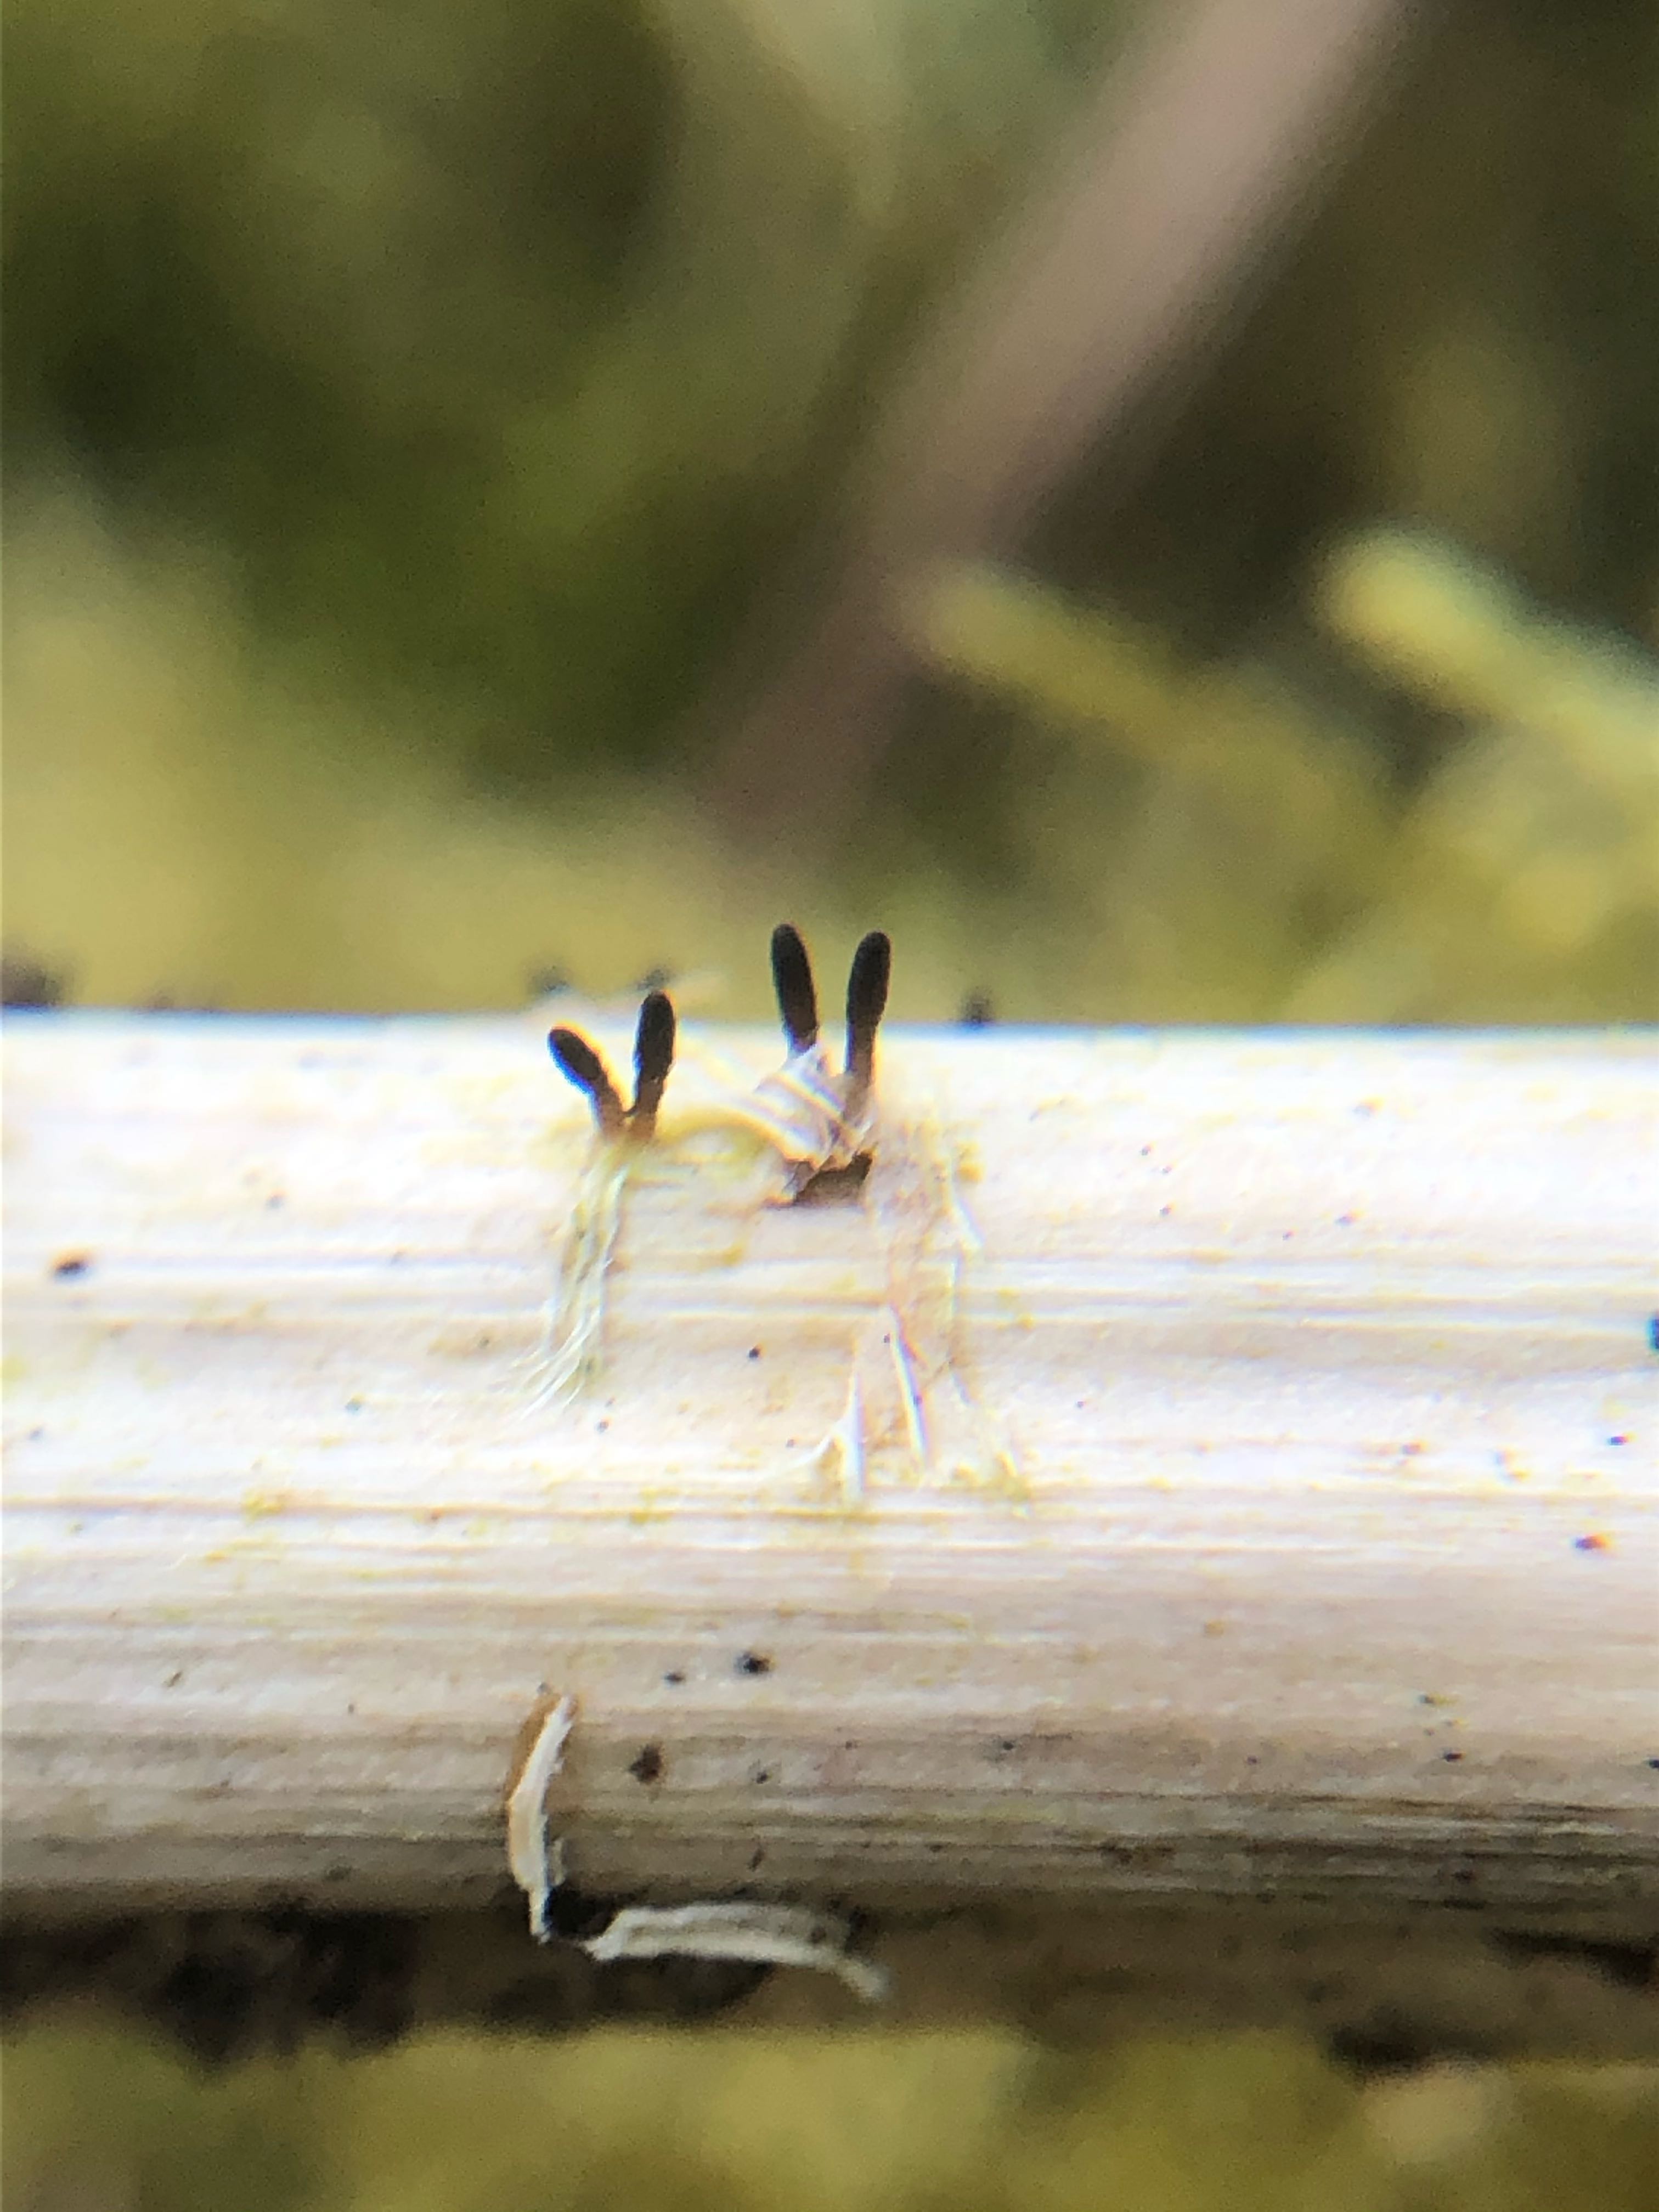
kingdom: Fungi
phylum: Ascomycota
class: Dothideomycetes
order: Acrospermales
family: Acrospermaceae
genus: Acrospermum
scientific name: Acrospermum compressum
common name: nælde-stængeltunge
